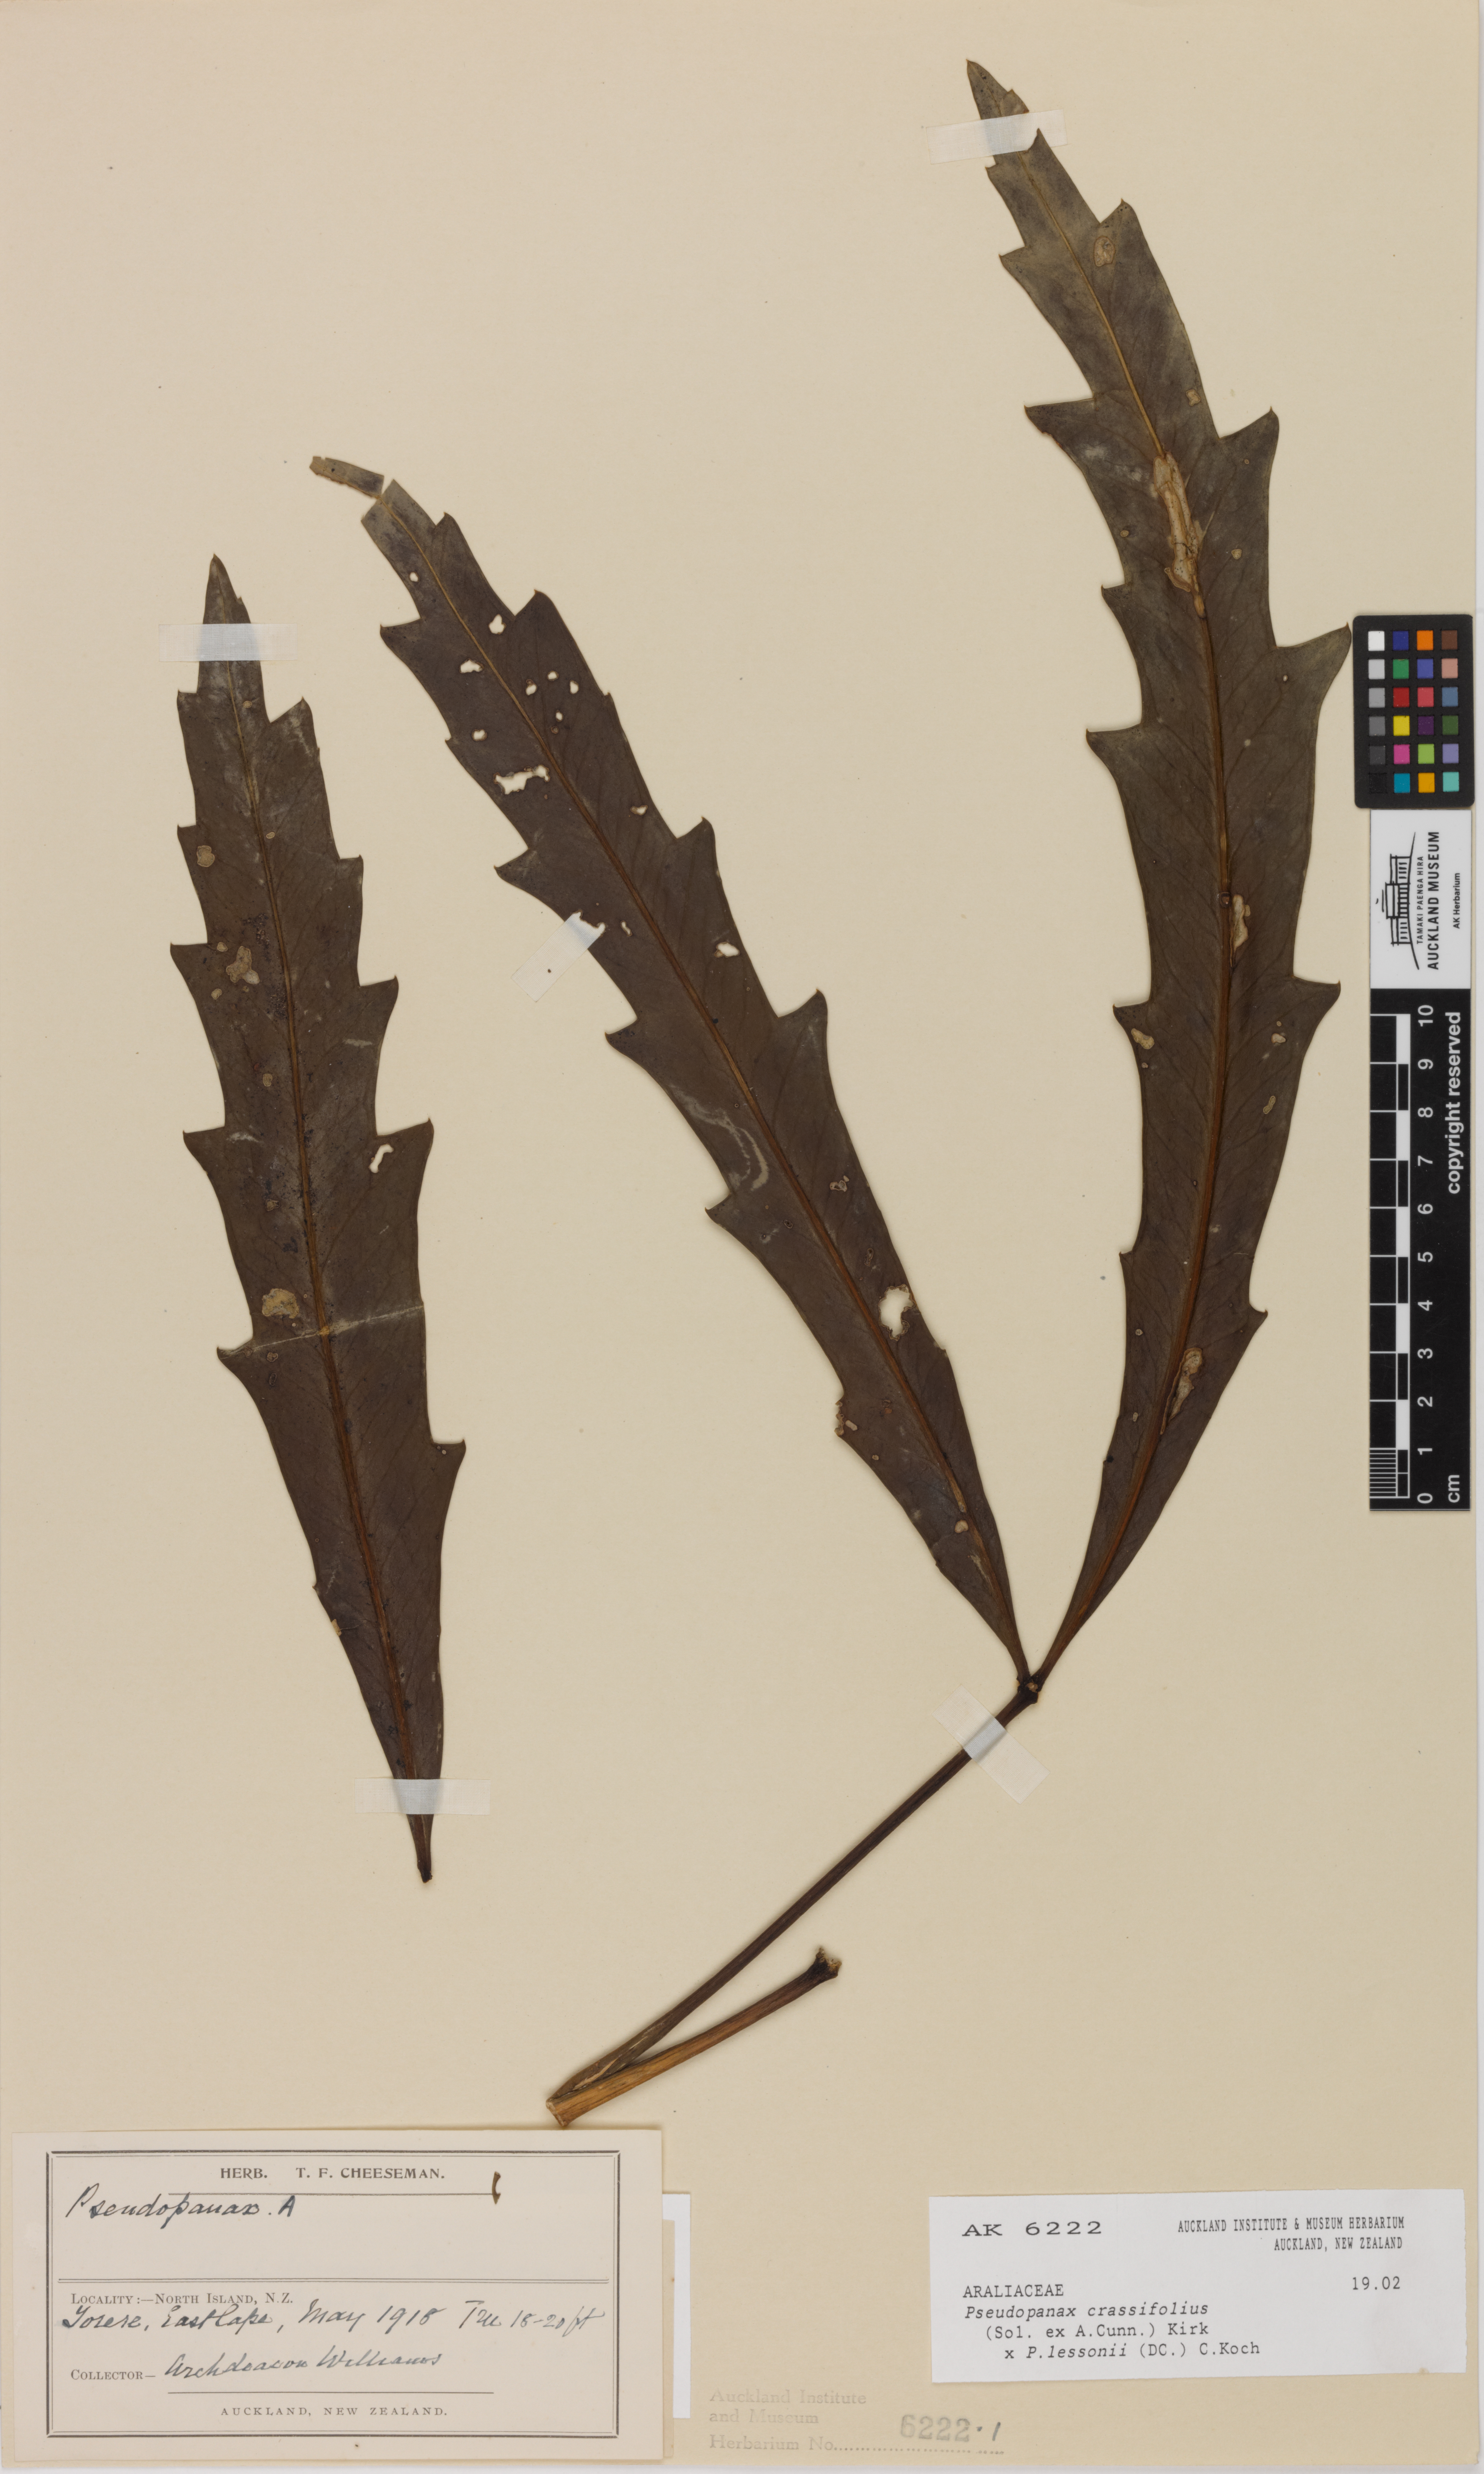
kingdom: Plantae
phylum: Tracheophyta
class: Magnoliopsida
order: Apiales
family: Araliaceae
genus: Pseudopanax
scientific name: Pseudopanax
